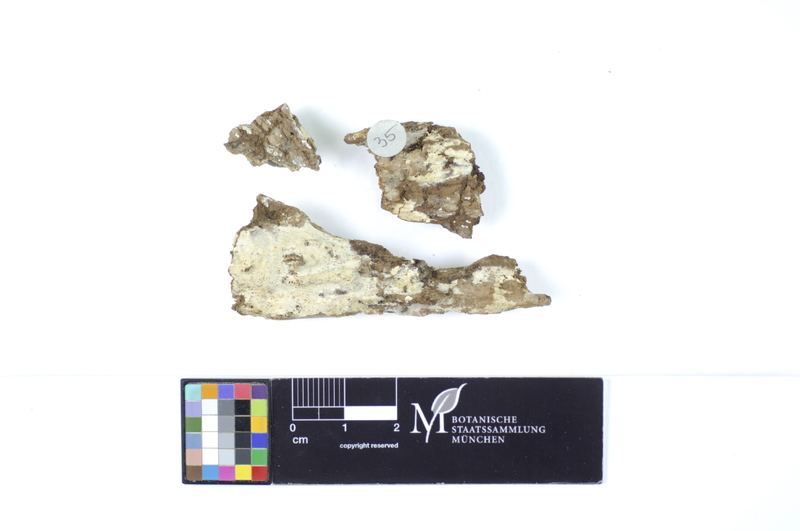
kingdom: Plantae
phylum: Tracheophyta
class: Magnoliopsida
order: Rosales
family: Ulmaceae
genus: Ulmus
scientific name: Ulmus
